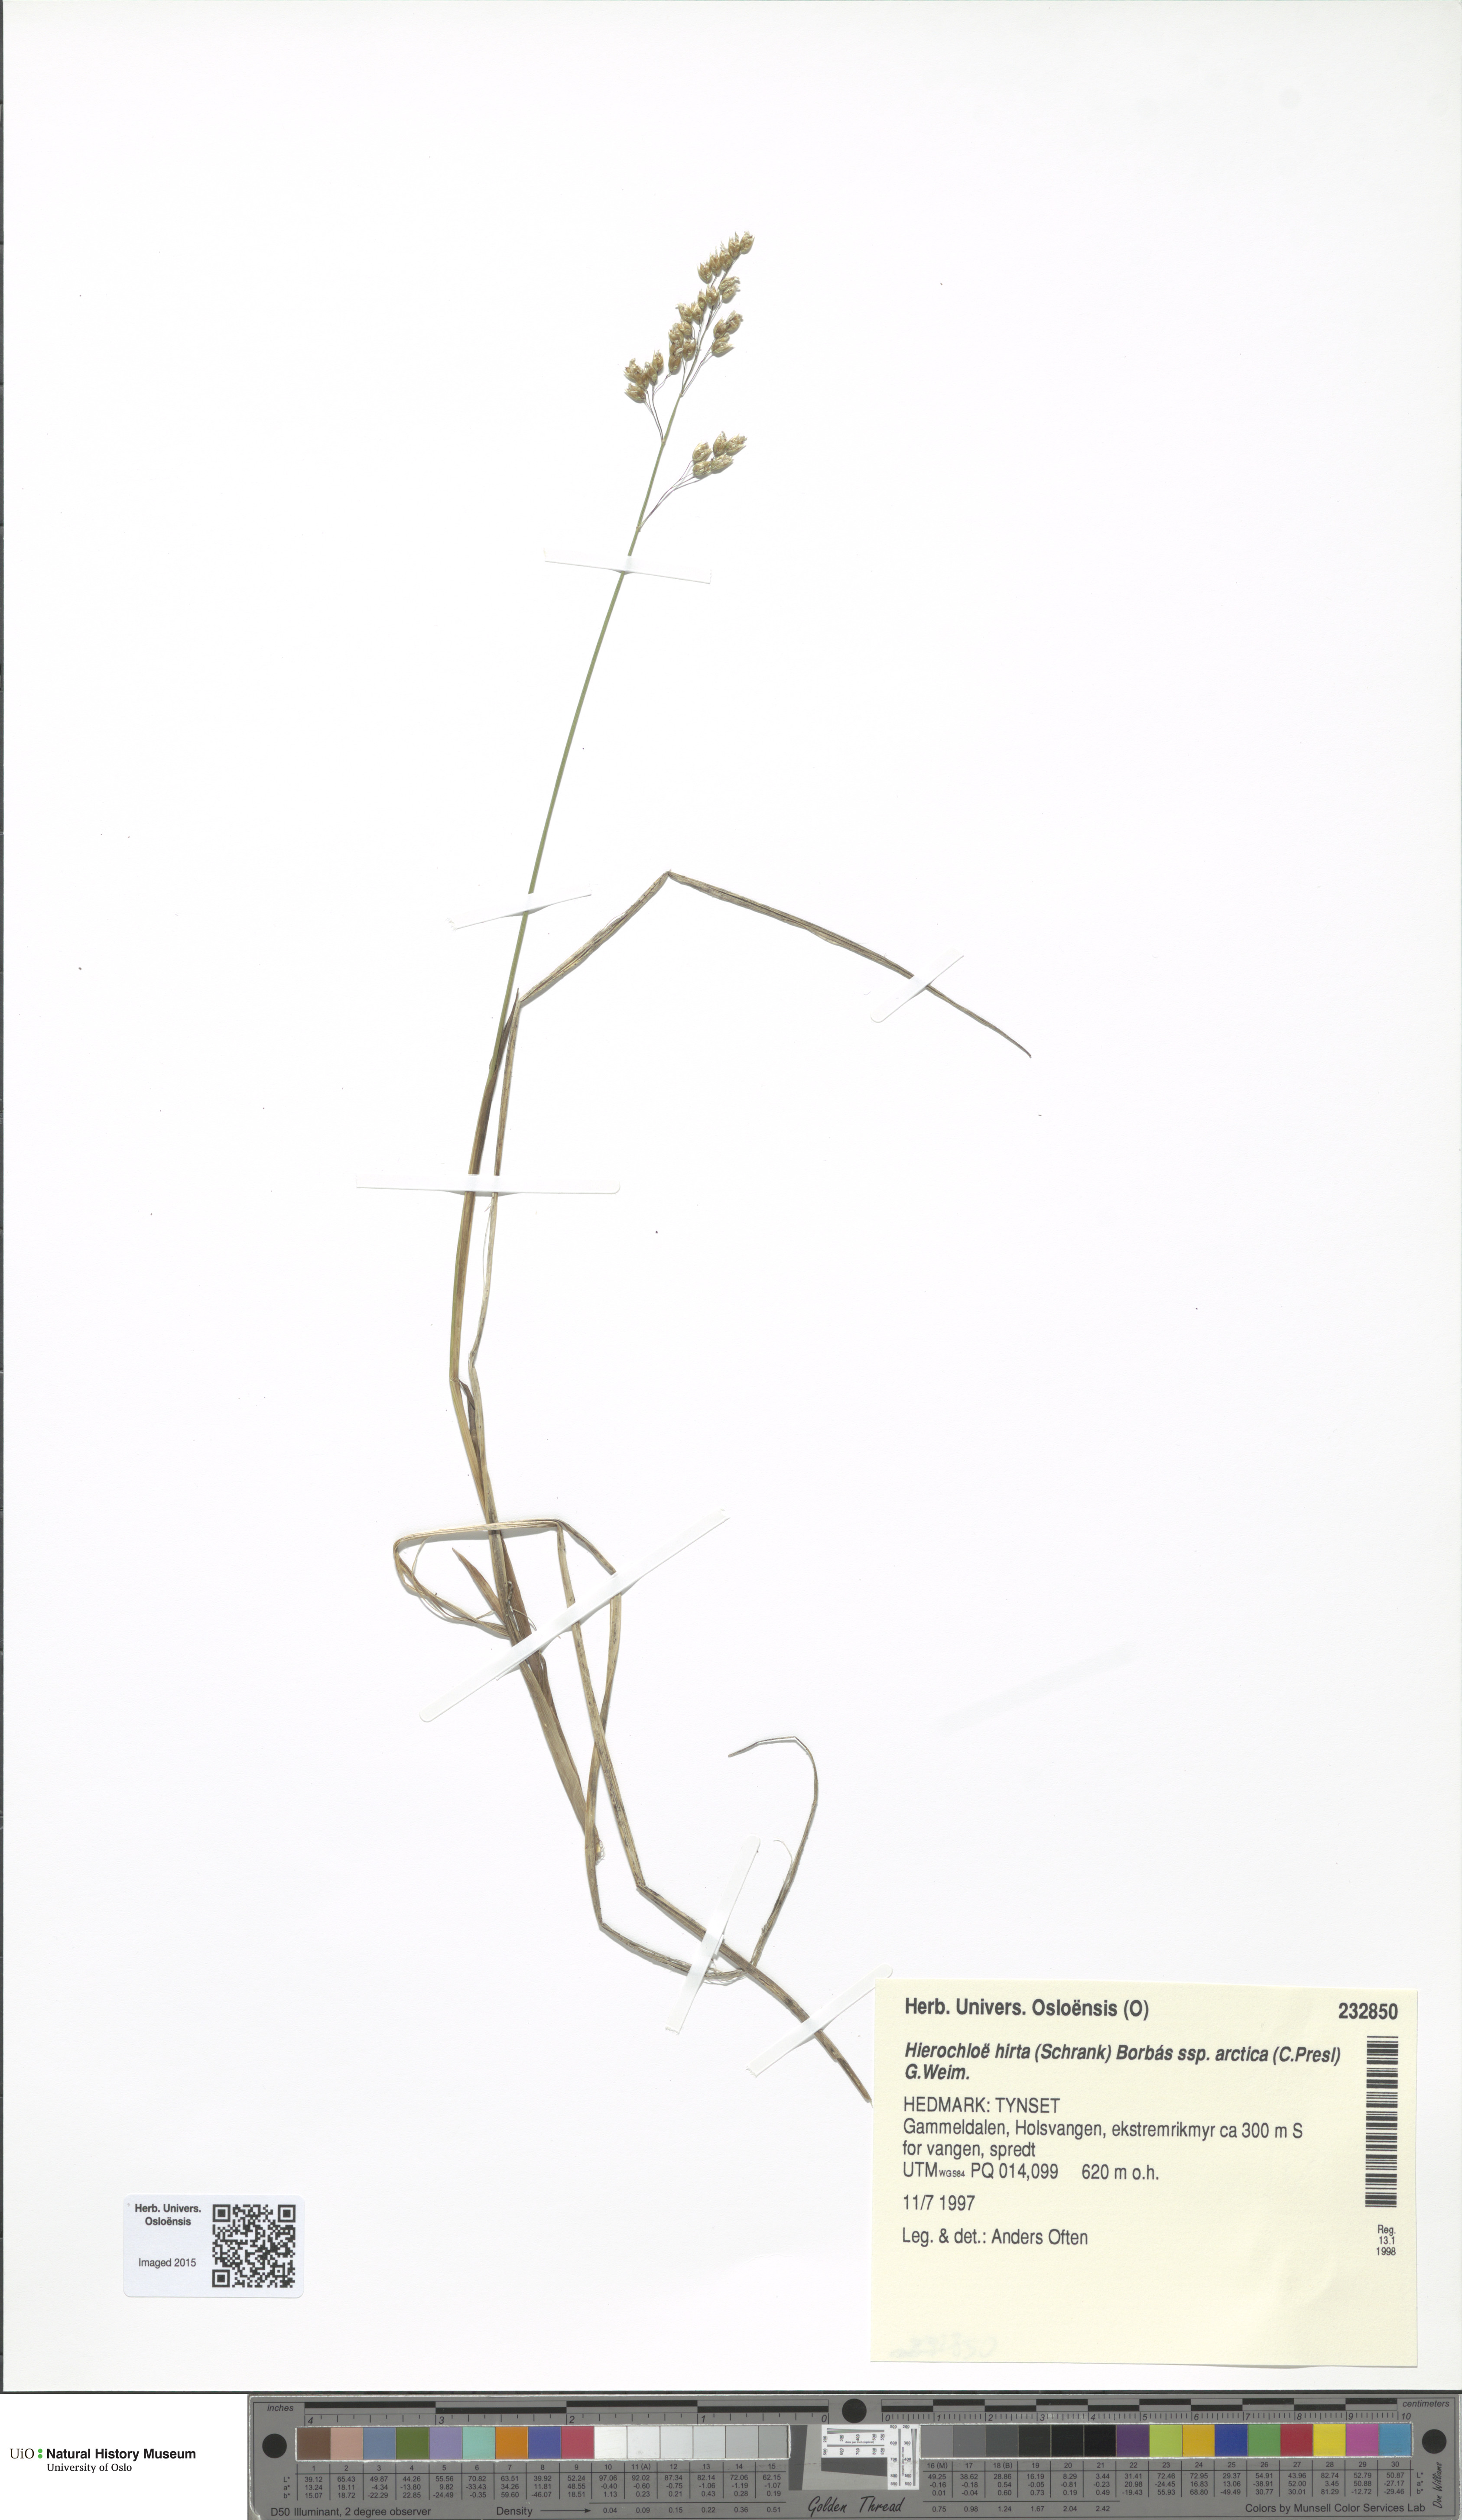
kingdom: Plantae
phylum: Tracheophyta
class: Liliopsida
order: Poales
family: Poaceae
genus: Anthoxanthum
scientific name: Anthoxanthum nitens
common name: Holy grass
